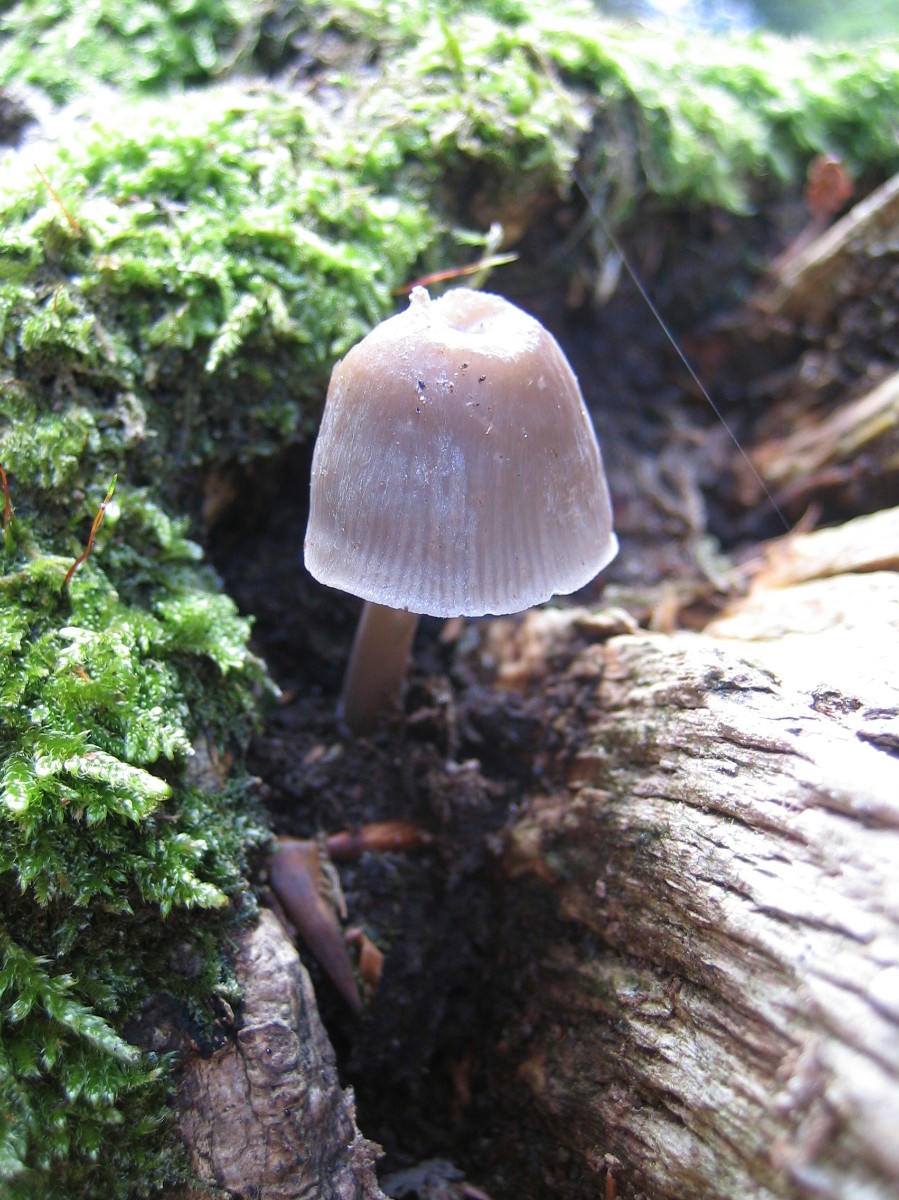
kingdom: Fungi
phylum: Basidiomycota
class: Agaricomycetes
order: Agaricales
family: Mycenaceae
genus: Mycena
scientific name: Mycena galericulata
